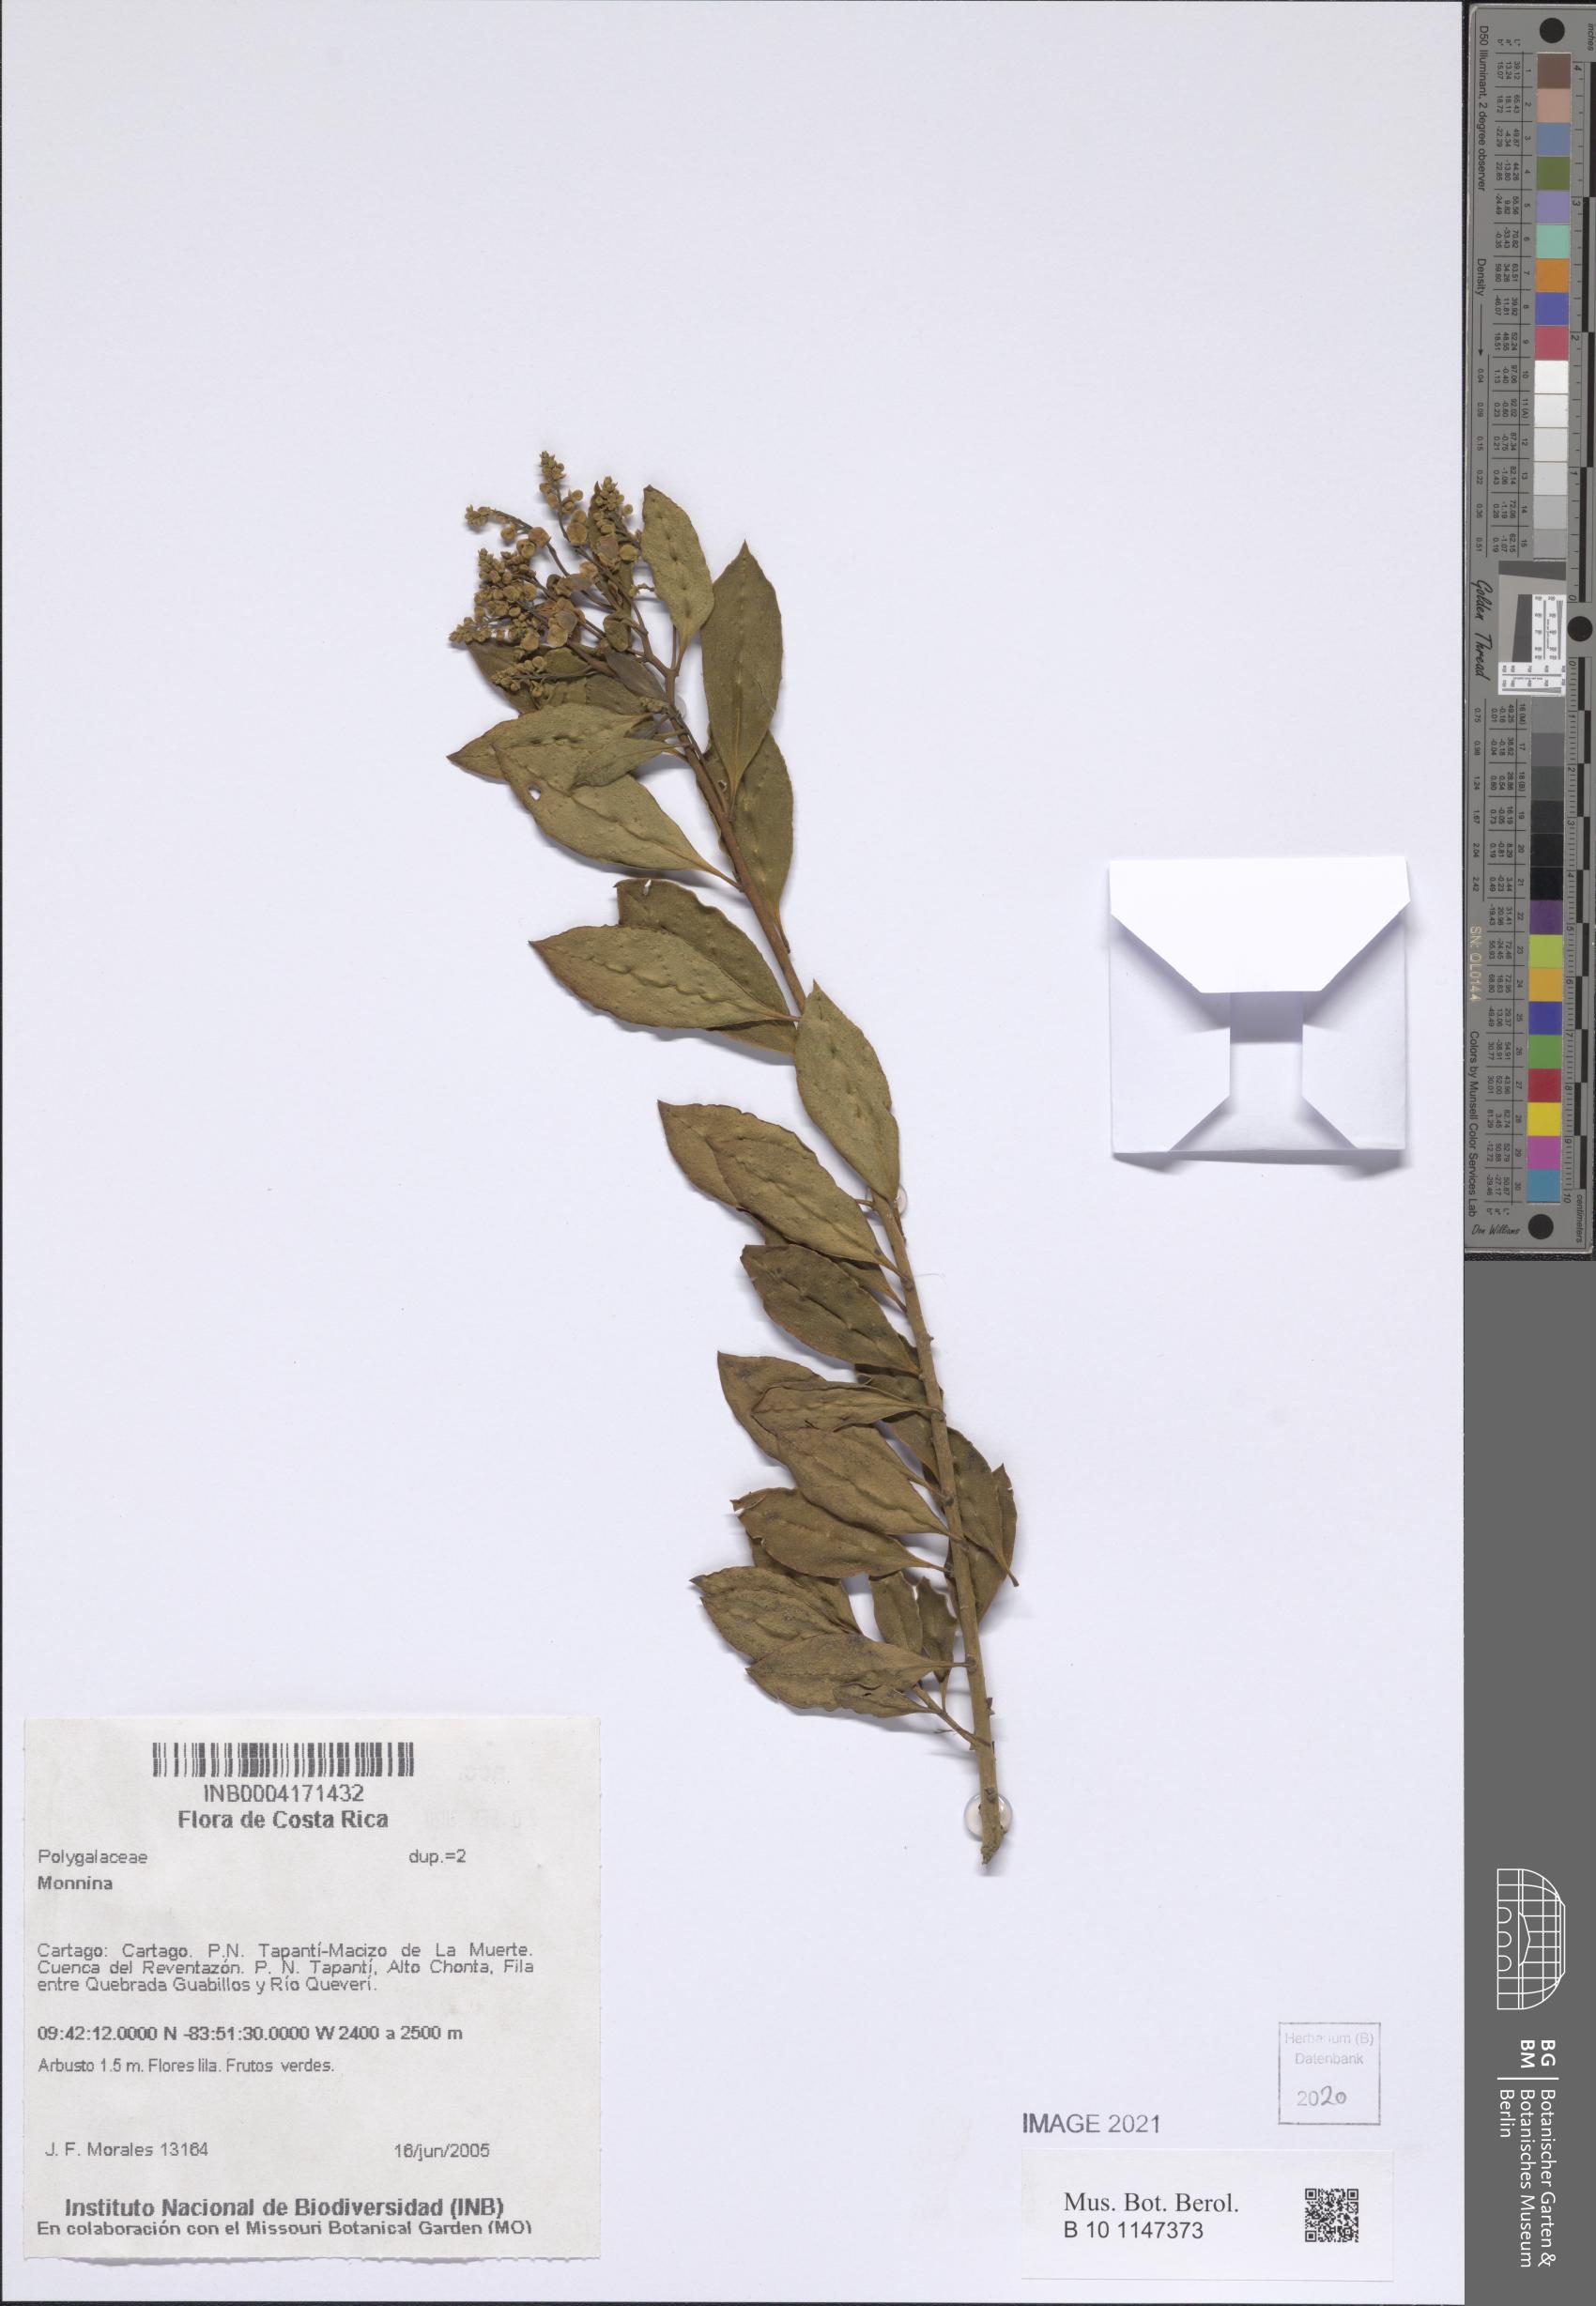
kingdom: Plantae
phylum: Tracheophyta
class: Magnoliopsida
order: Fabales
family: Polygalaceae
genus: Monnina
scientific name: Monnina
